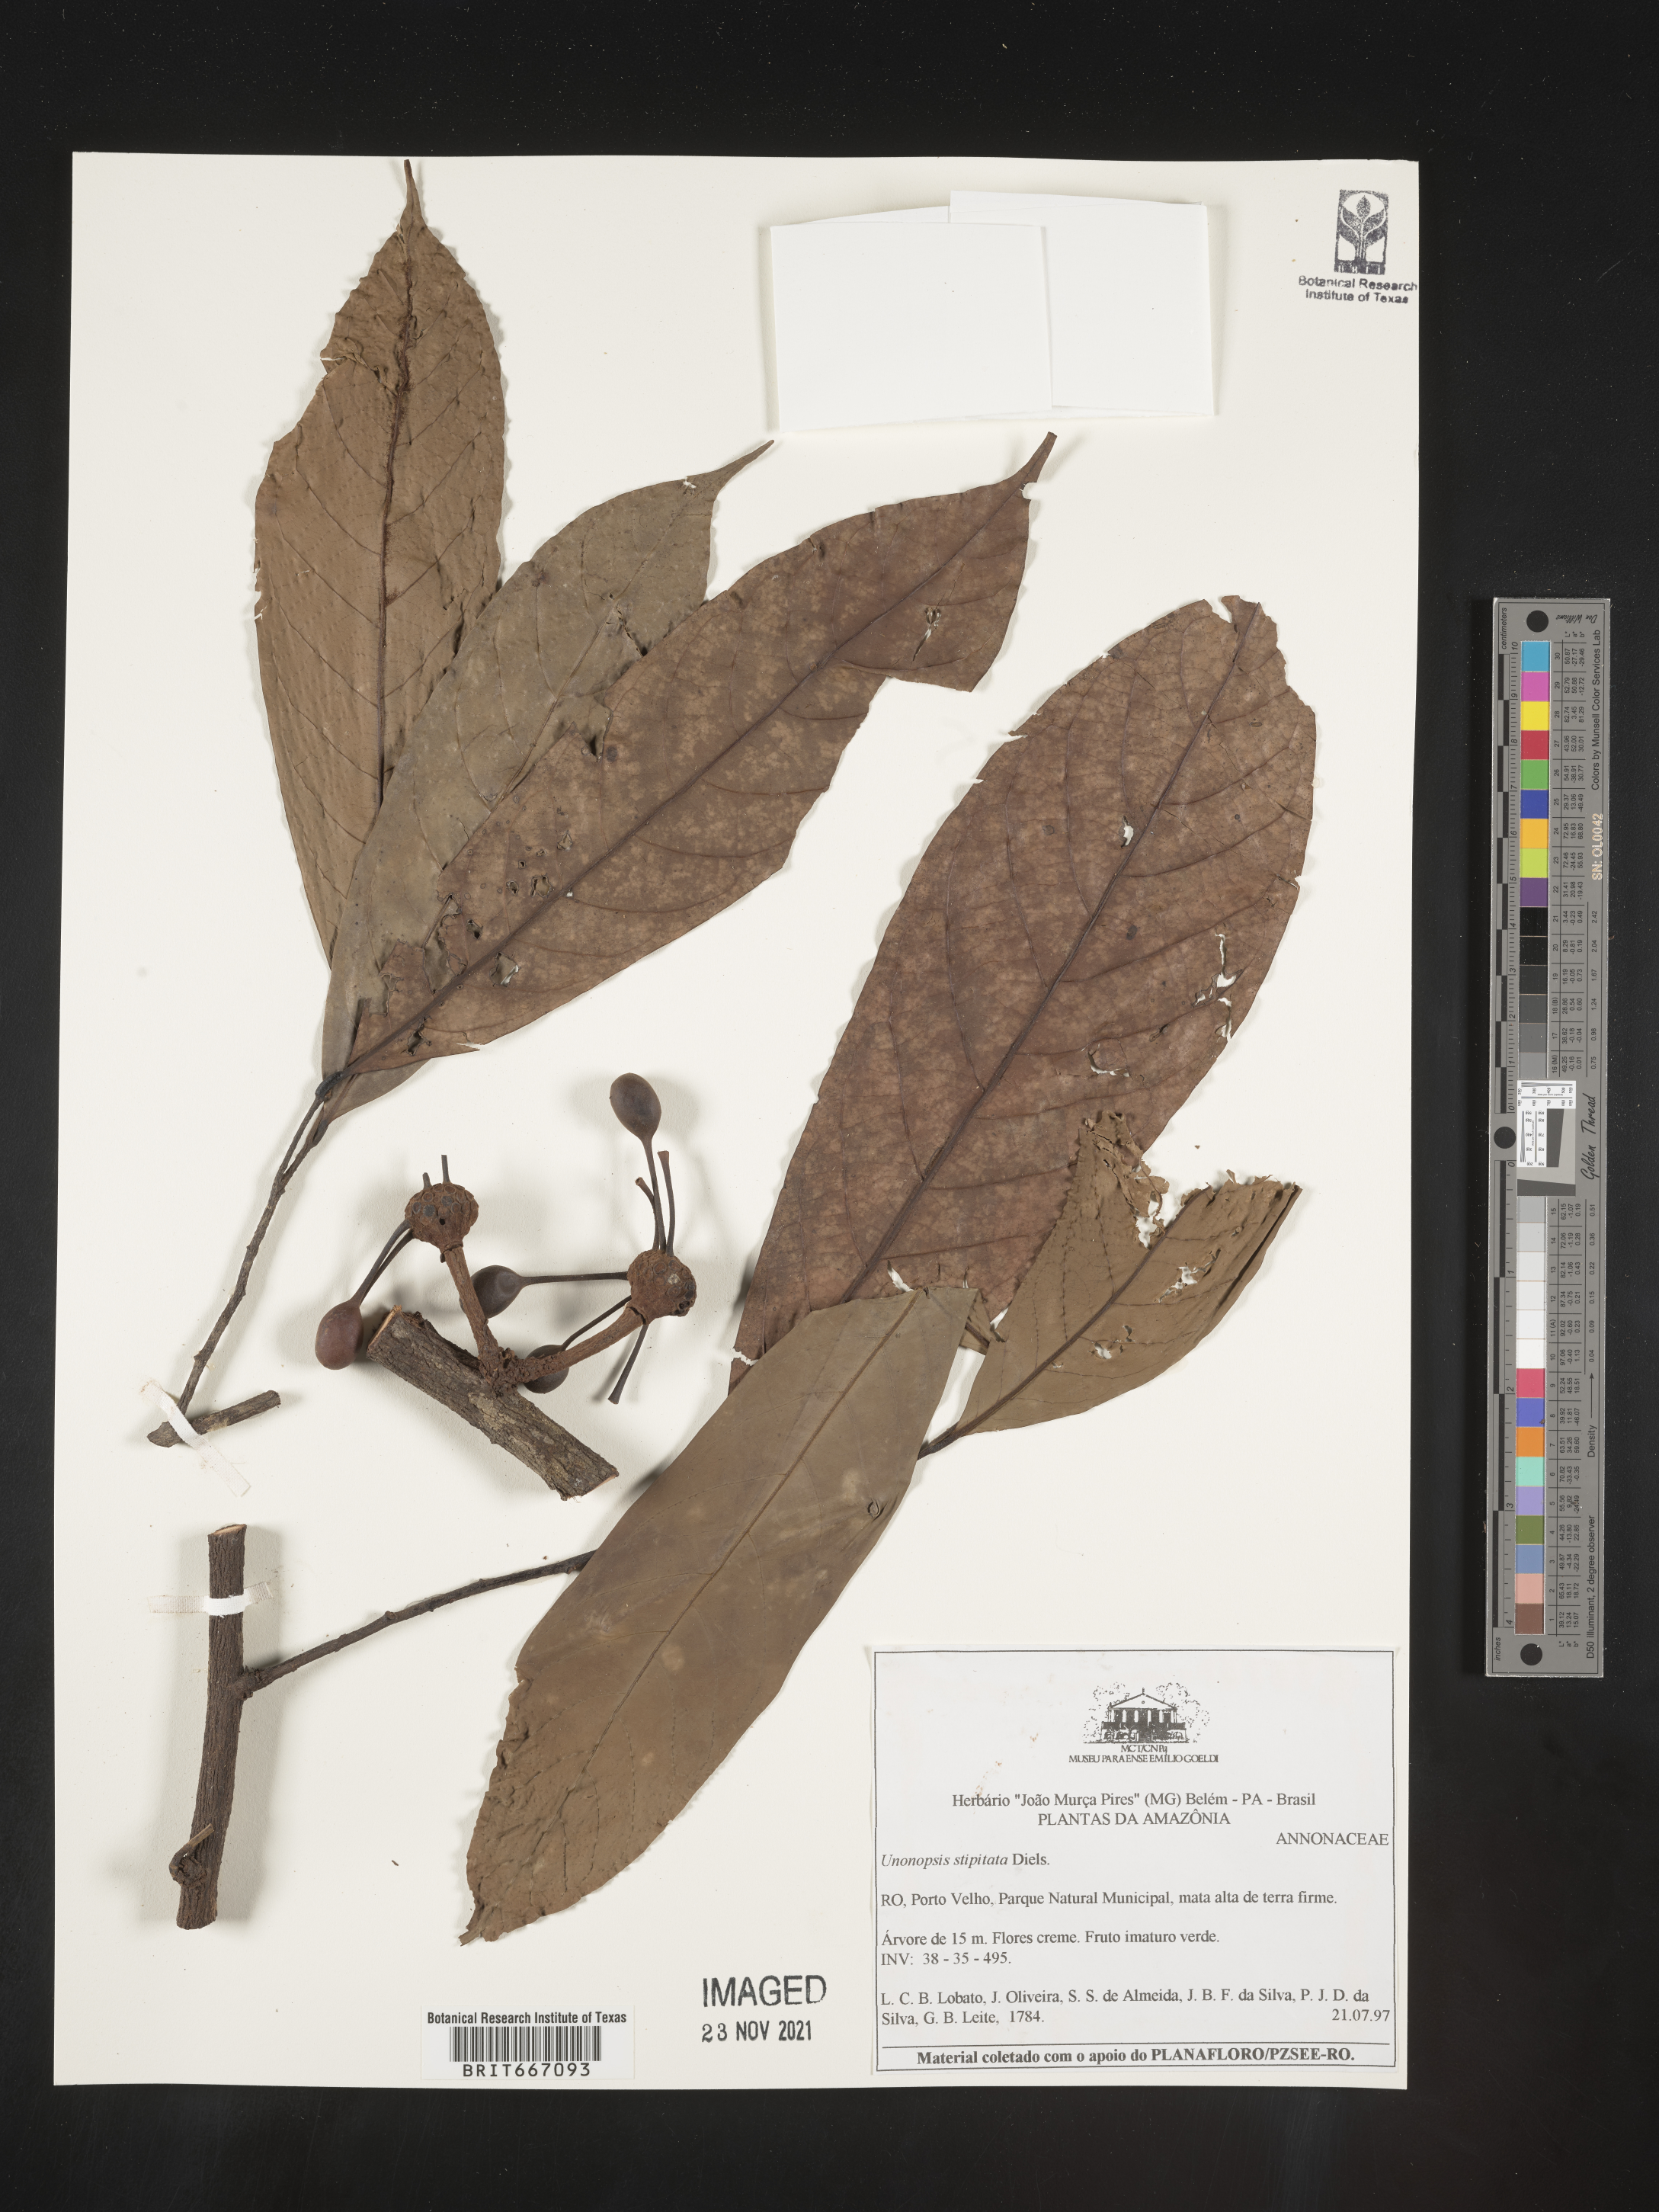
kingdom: Plantae
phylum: Tracheophyta
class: Magnoliopsida
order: Magnoliales
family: Annonaceae
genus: Unonopsis
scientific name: Unonopsis
